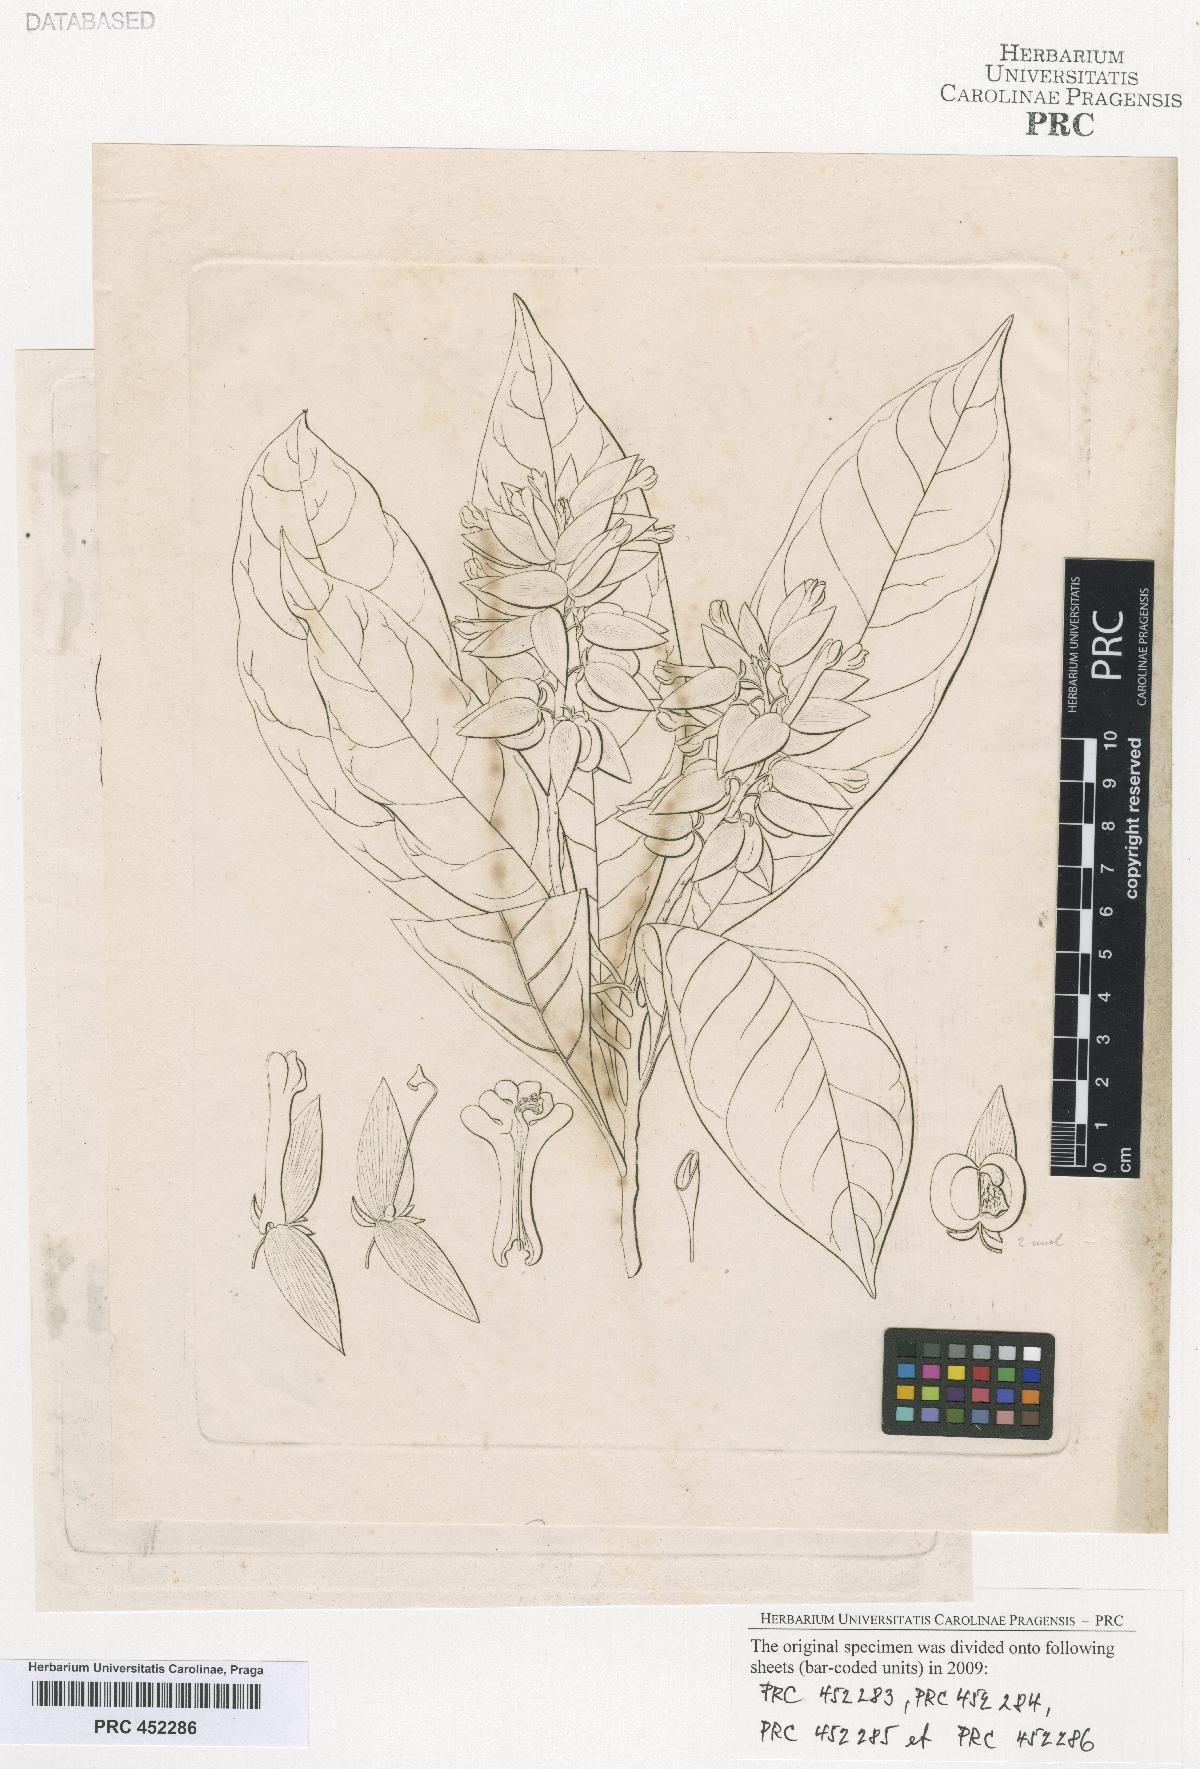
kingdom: Plantae
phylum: Tracheophyta
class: Magnoliopsida
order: Fabales
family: Polygalaceae
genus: Polygala
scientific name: Polygala
